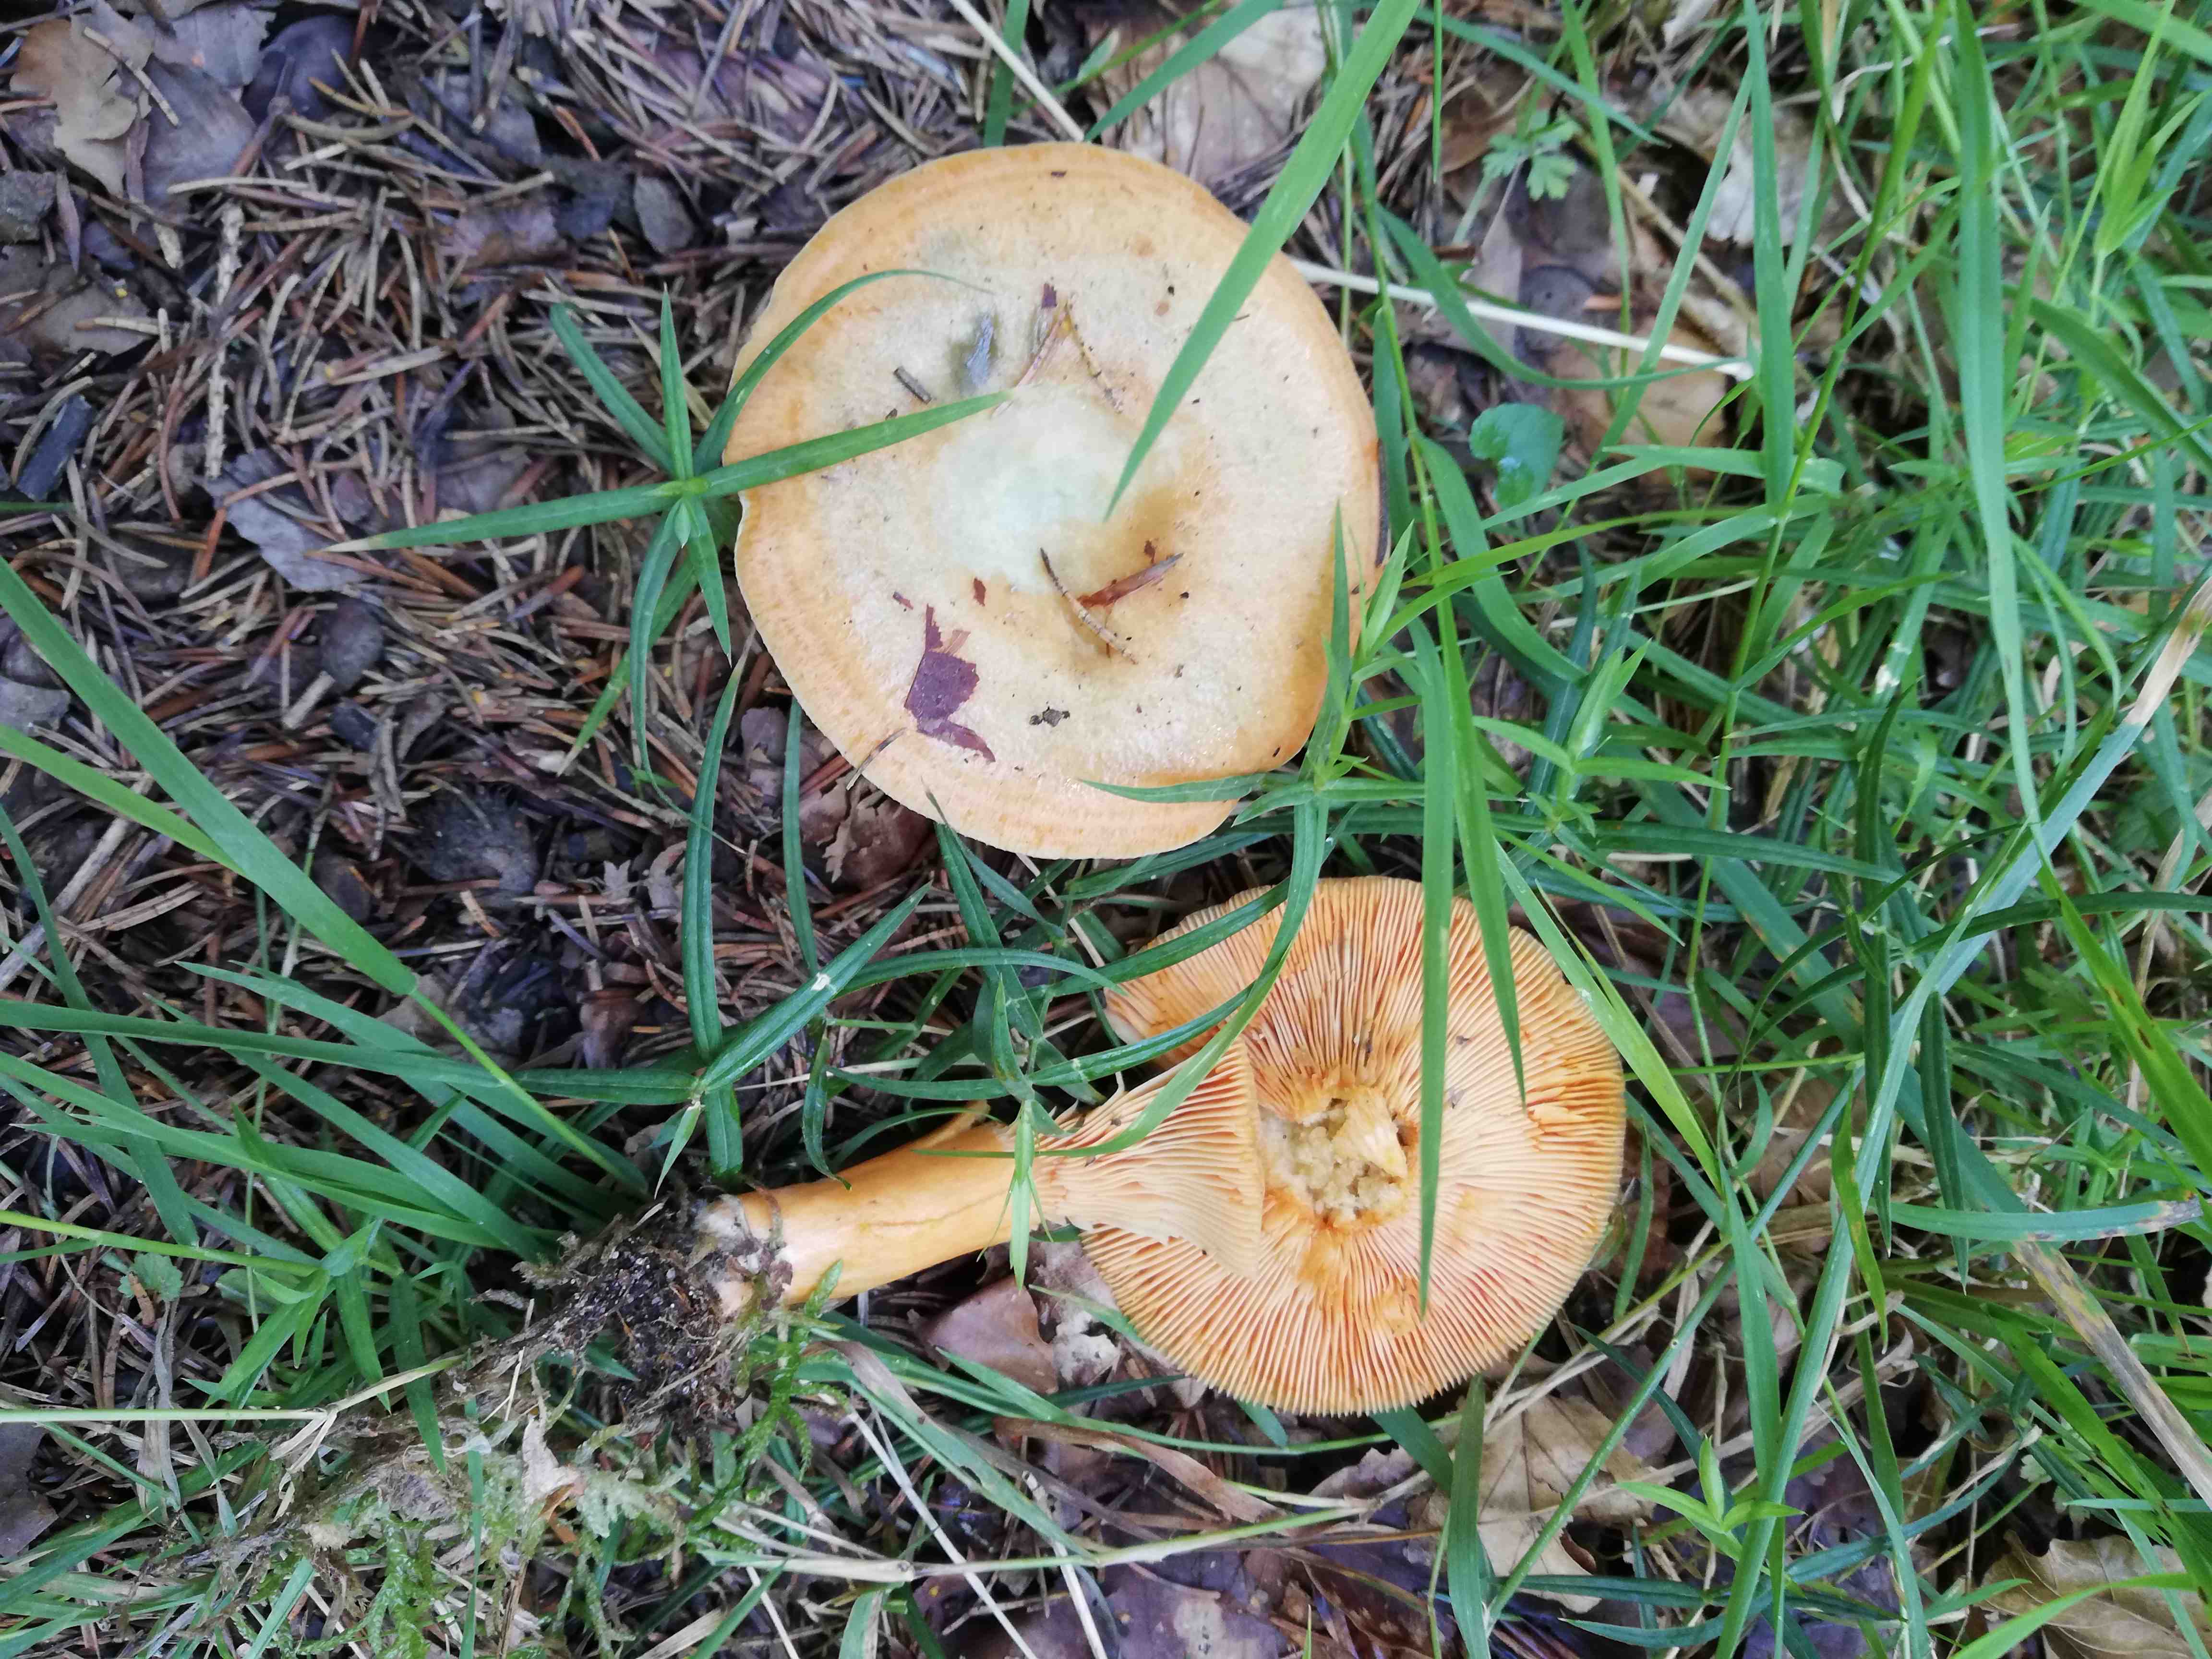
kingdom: Fungi
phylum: Basidiomycota
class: Agaricomycetes
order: Russulales
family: Russulaceae
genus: Lactarius
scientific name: Lactarius deterrimus
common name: gran-mælkehat
